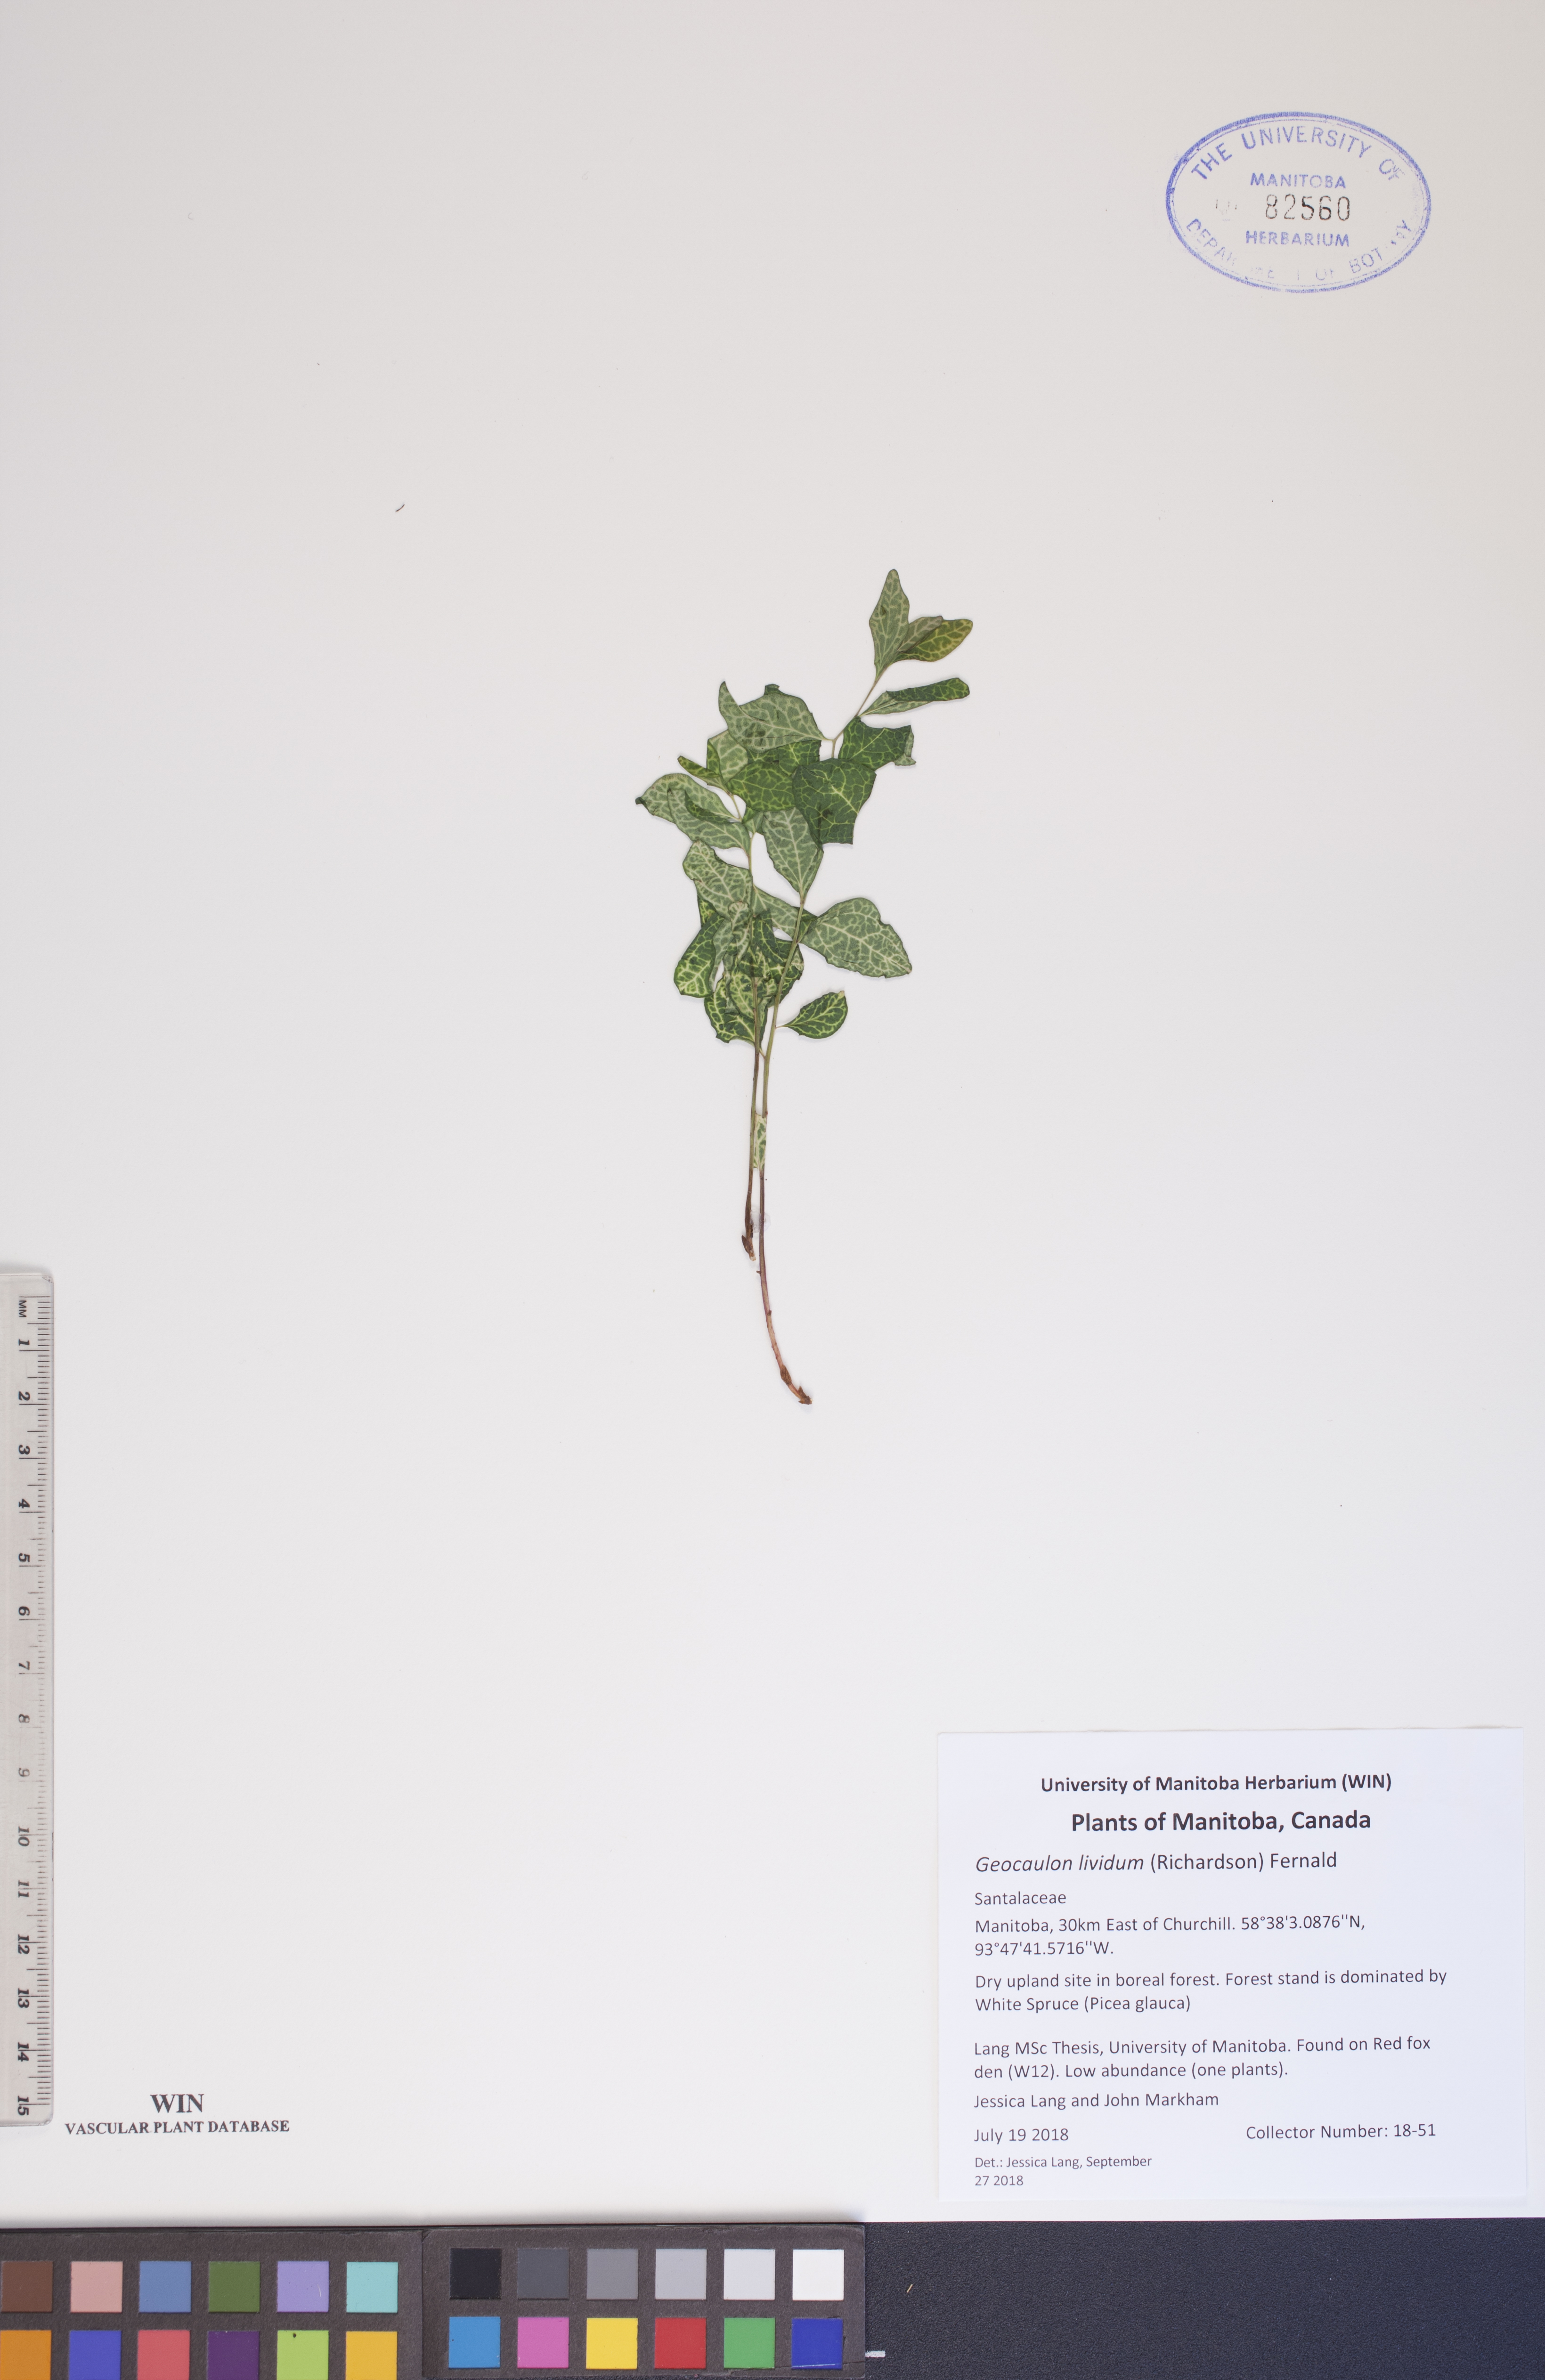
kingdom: Plantae
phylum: Tracheophyta
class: Magnoliopsida
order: Santalales
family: Comandraceae
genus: Geocaulon
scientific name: Geocaulon lividum
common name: Earthberry
